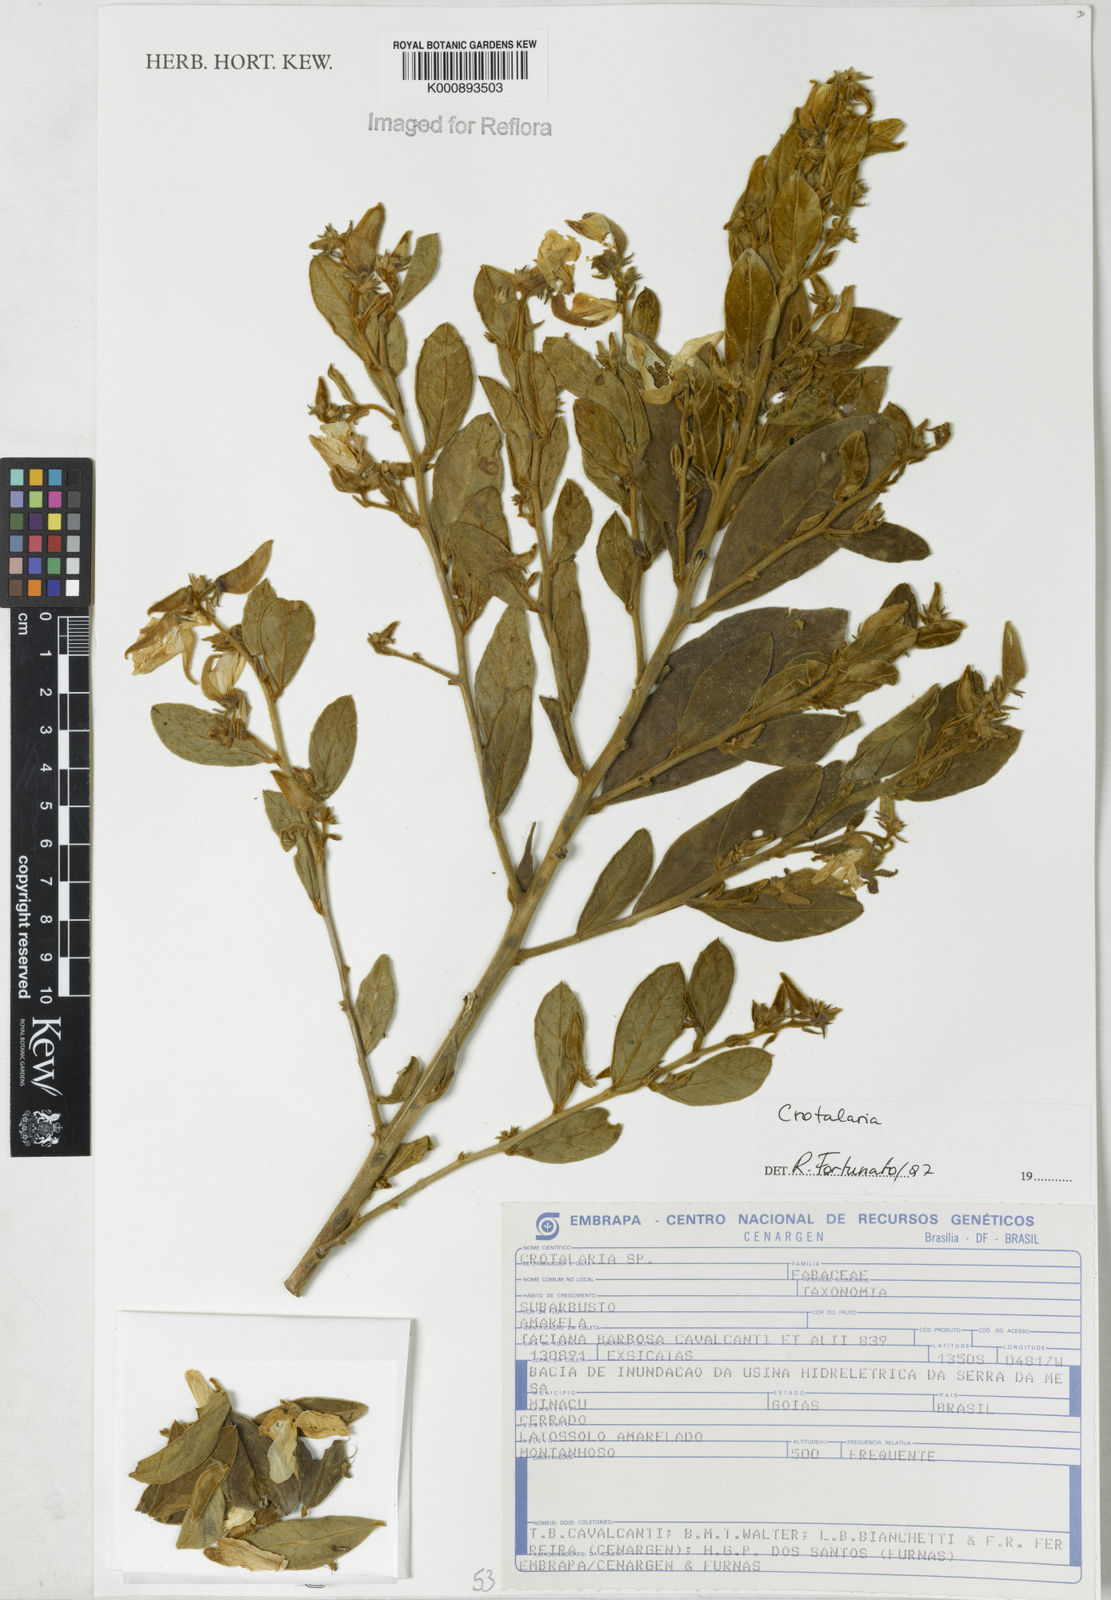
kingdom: Plantae
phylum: Tracheophyta
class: Magnoliopsida
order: Fabales
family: Fabaceae
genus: Crotalaria
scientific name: Crotalaria martiana
